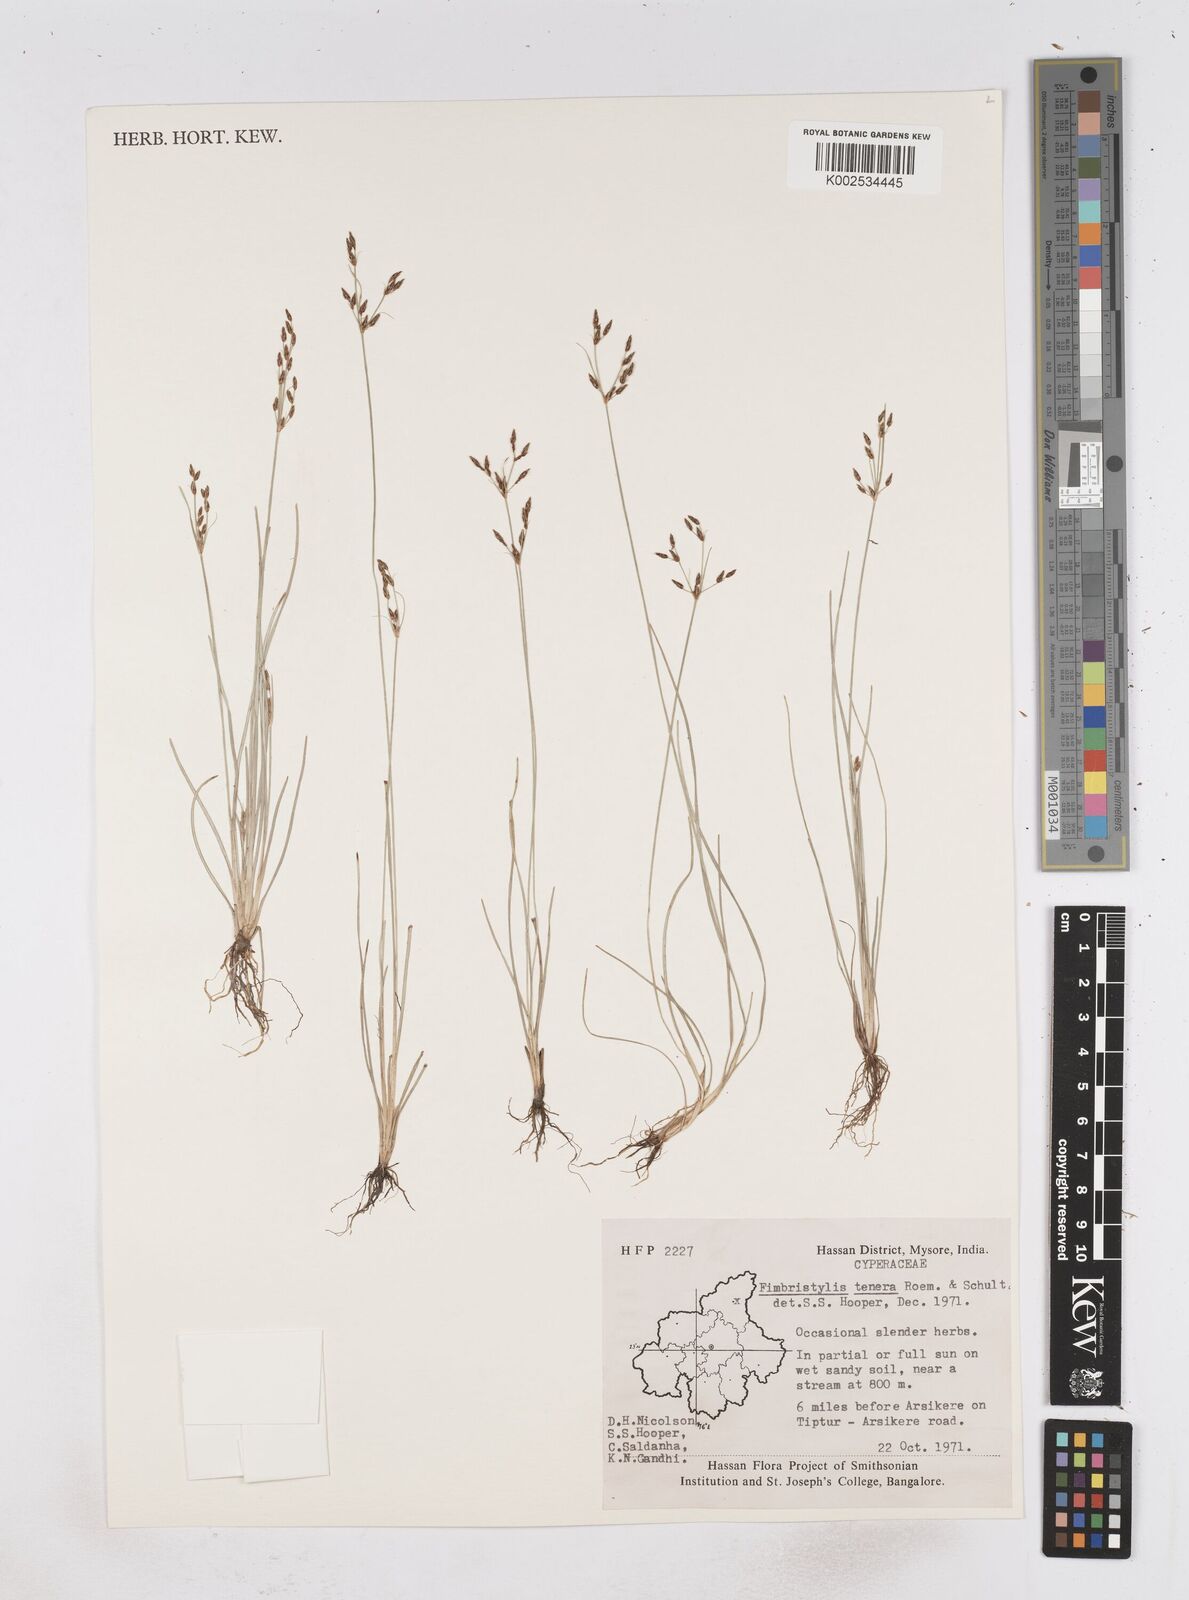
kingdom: Plantae
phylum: Tracheophyta
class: Liliopsida
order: Poales
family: Cyperaceae
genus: Fimbristylis
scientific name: Fimbristylis tenera
